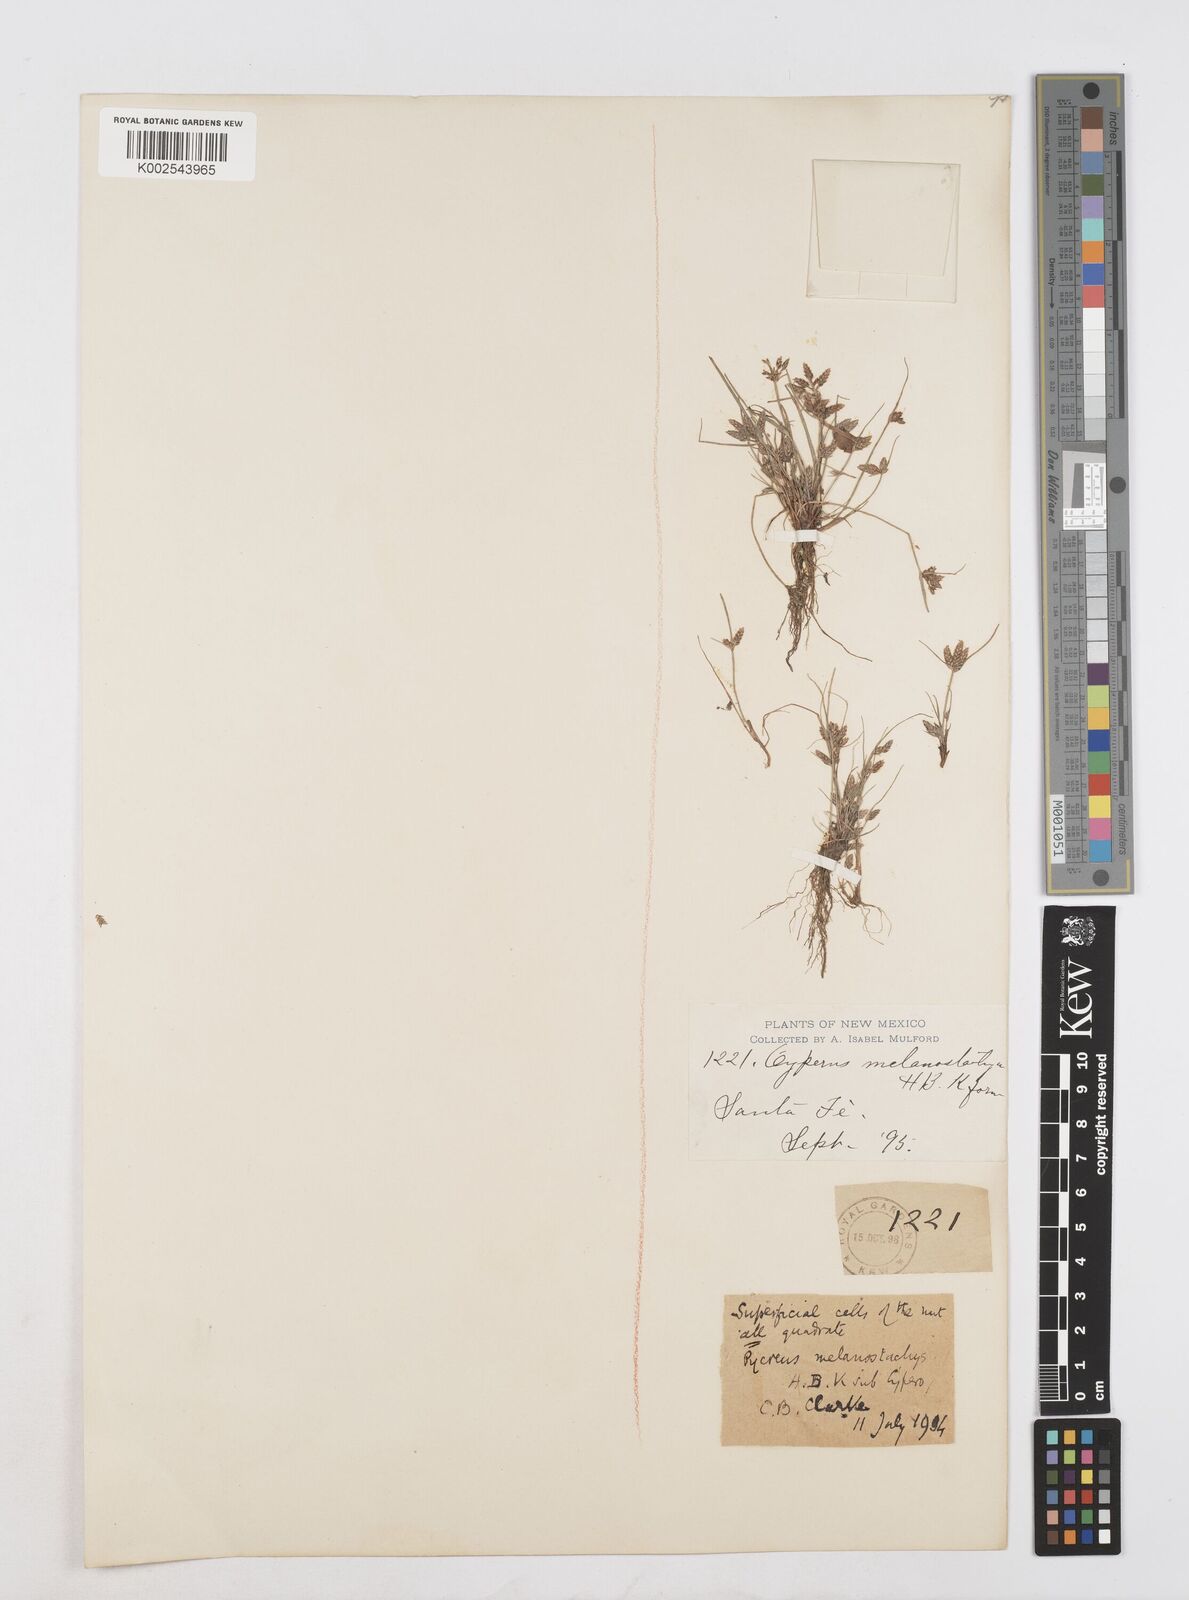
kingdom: Plantae
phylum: Tracheophyta
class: Liliopsida
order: Poales
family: Cyperaceae
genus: Cyperus
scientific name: Cyperus melanostachyus
